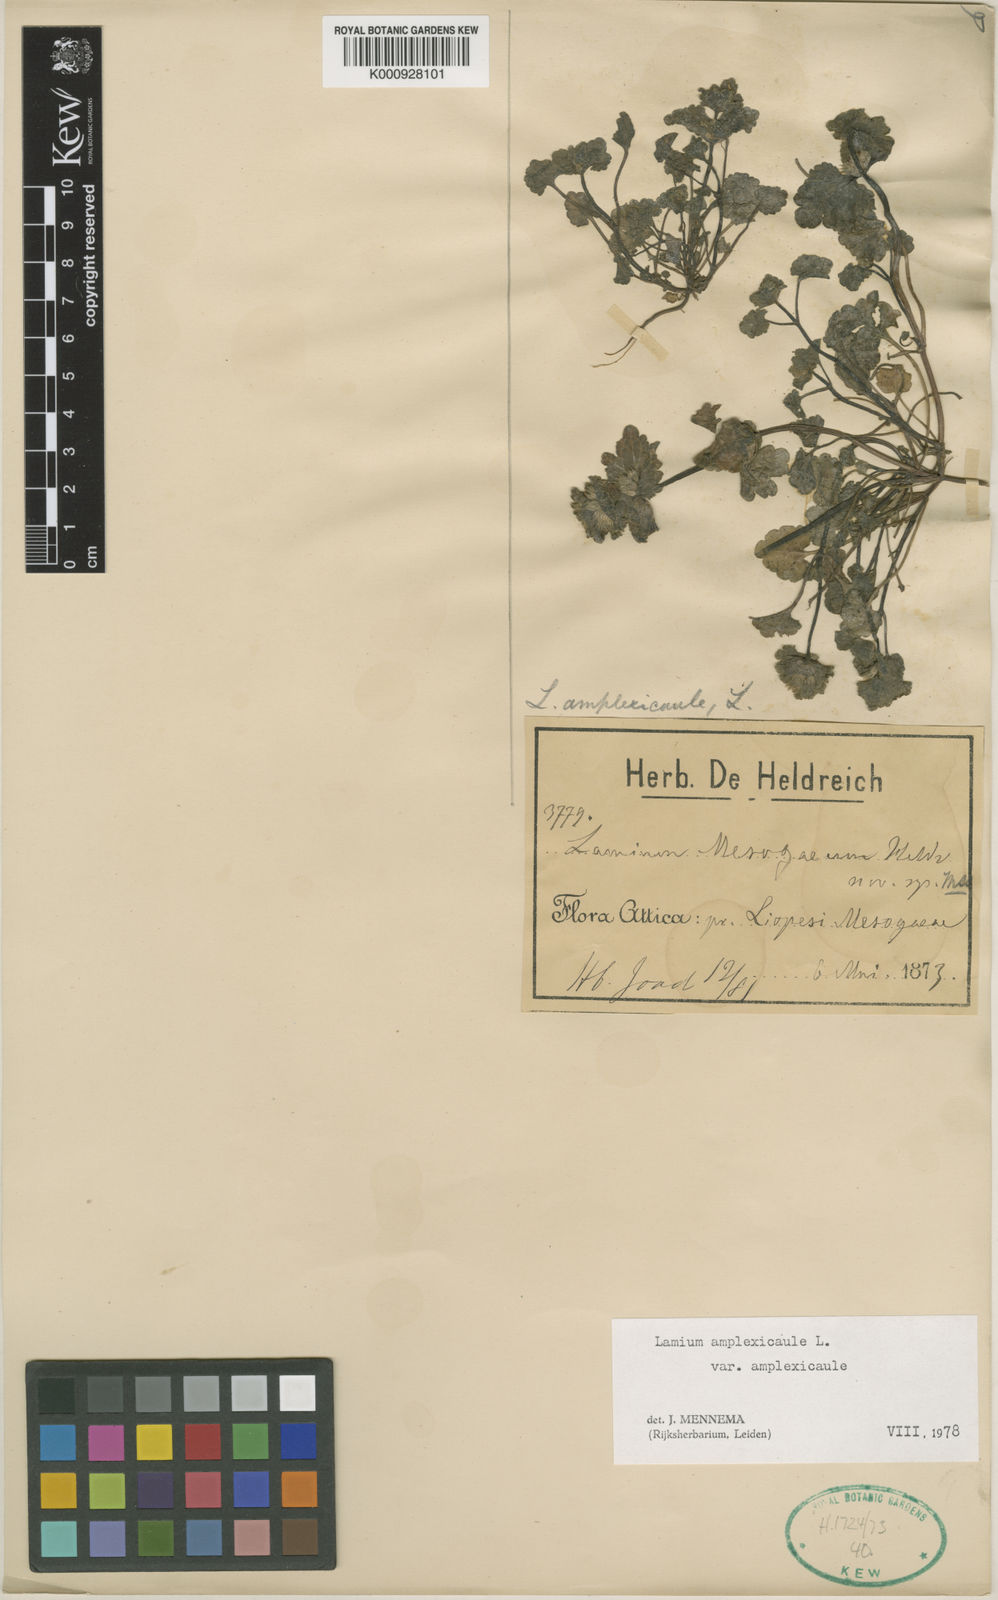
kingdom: Plantae
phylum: Tracheophyta
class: Magnoliopsida
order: Lamiales
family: Lamiaceae
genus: Lamium
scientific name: Lamium amplexicaule
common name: Henbit dead-nettle
